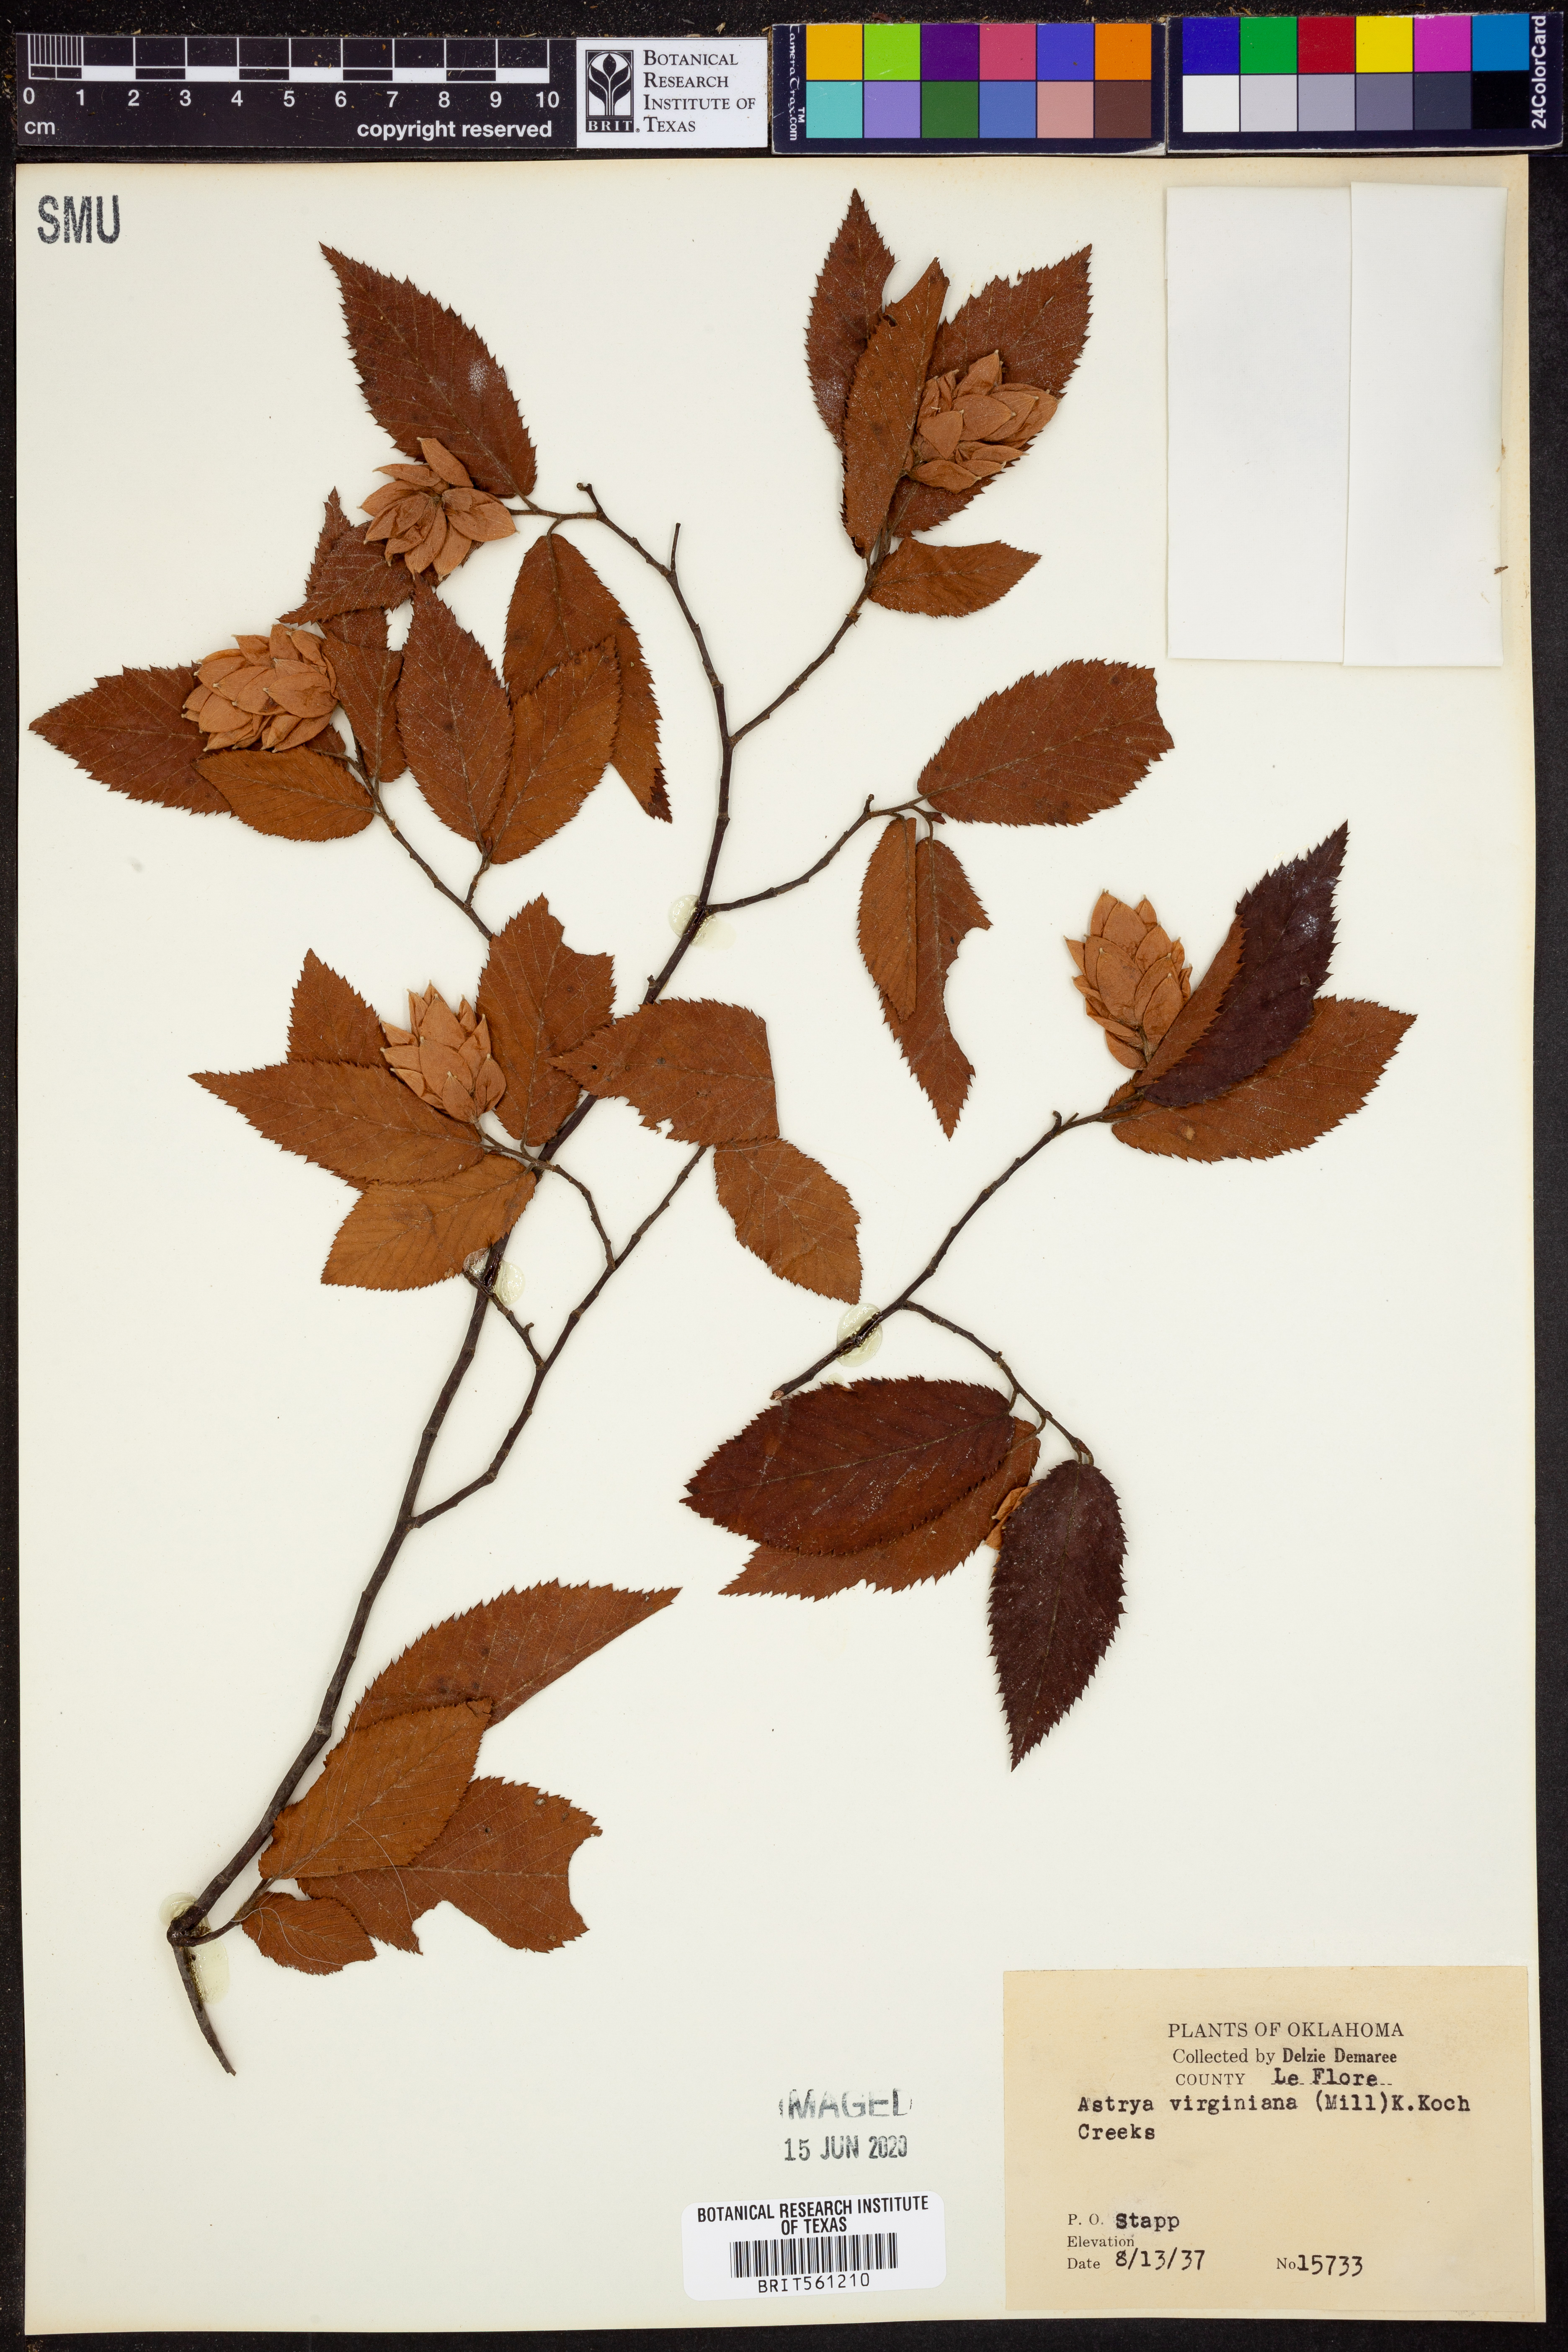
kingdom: Plantae
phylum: Tracheophyta
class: Magnoliopsida
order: Fagales
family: Betulaceae
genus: Ostrya
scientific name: Ostrya virginiana
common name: Ironwood
